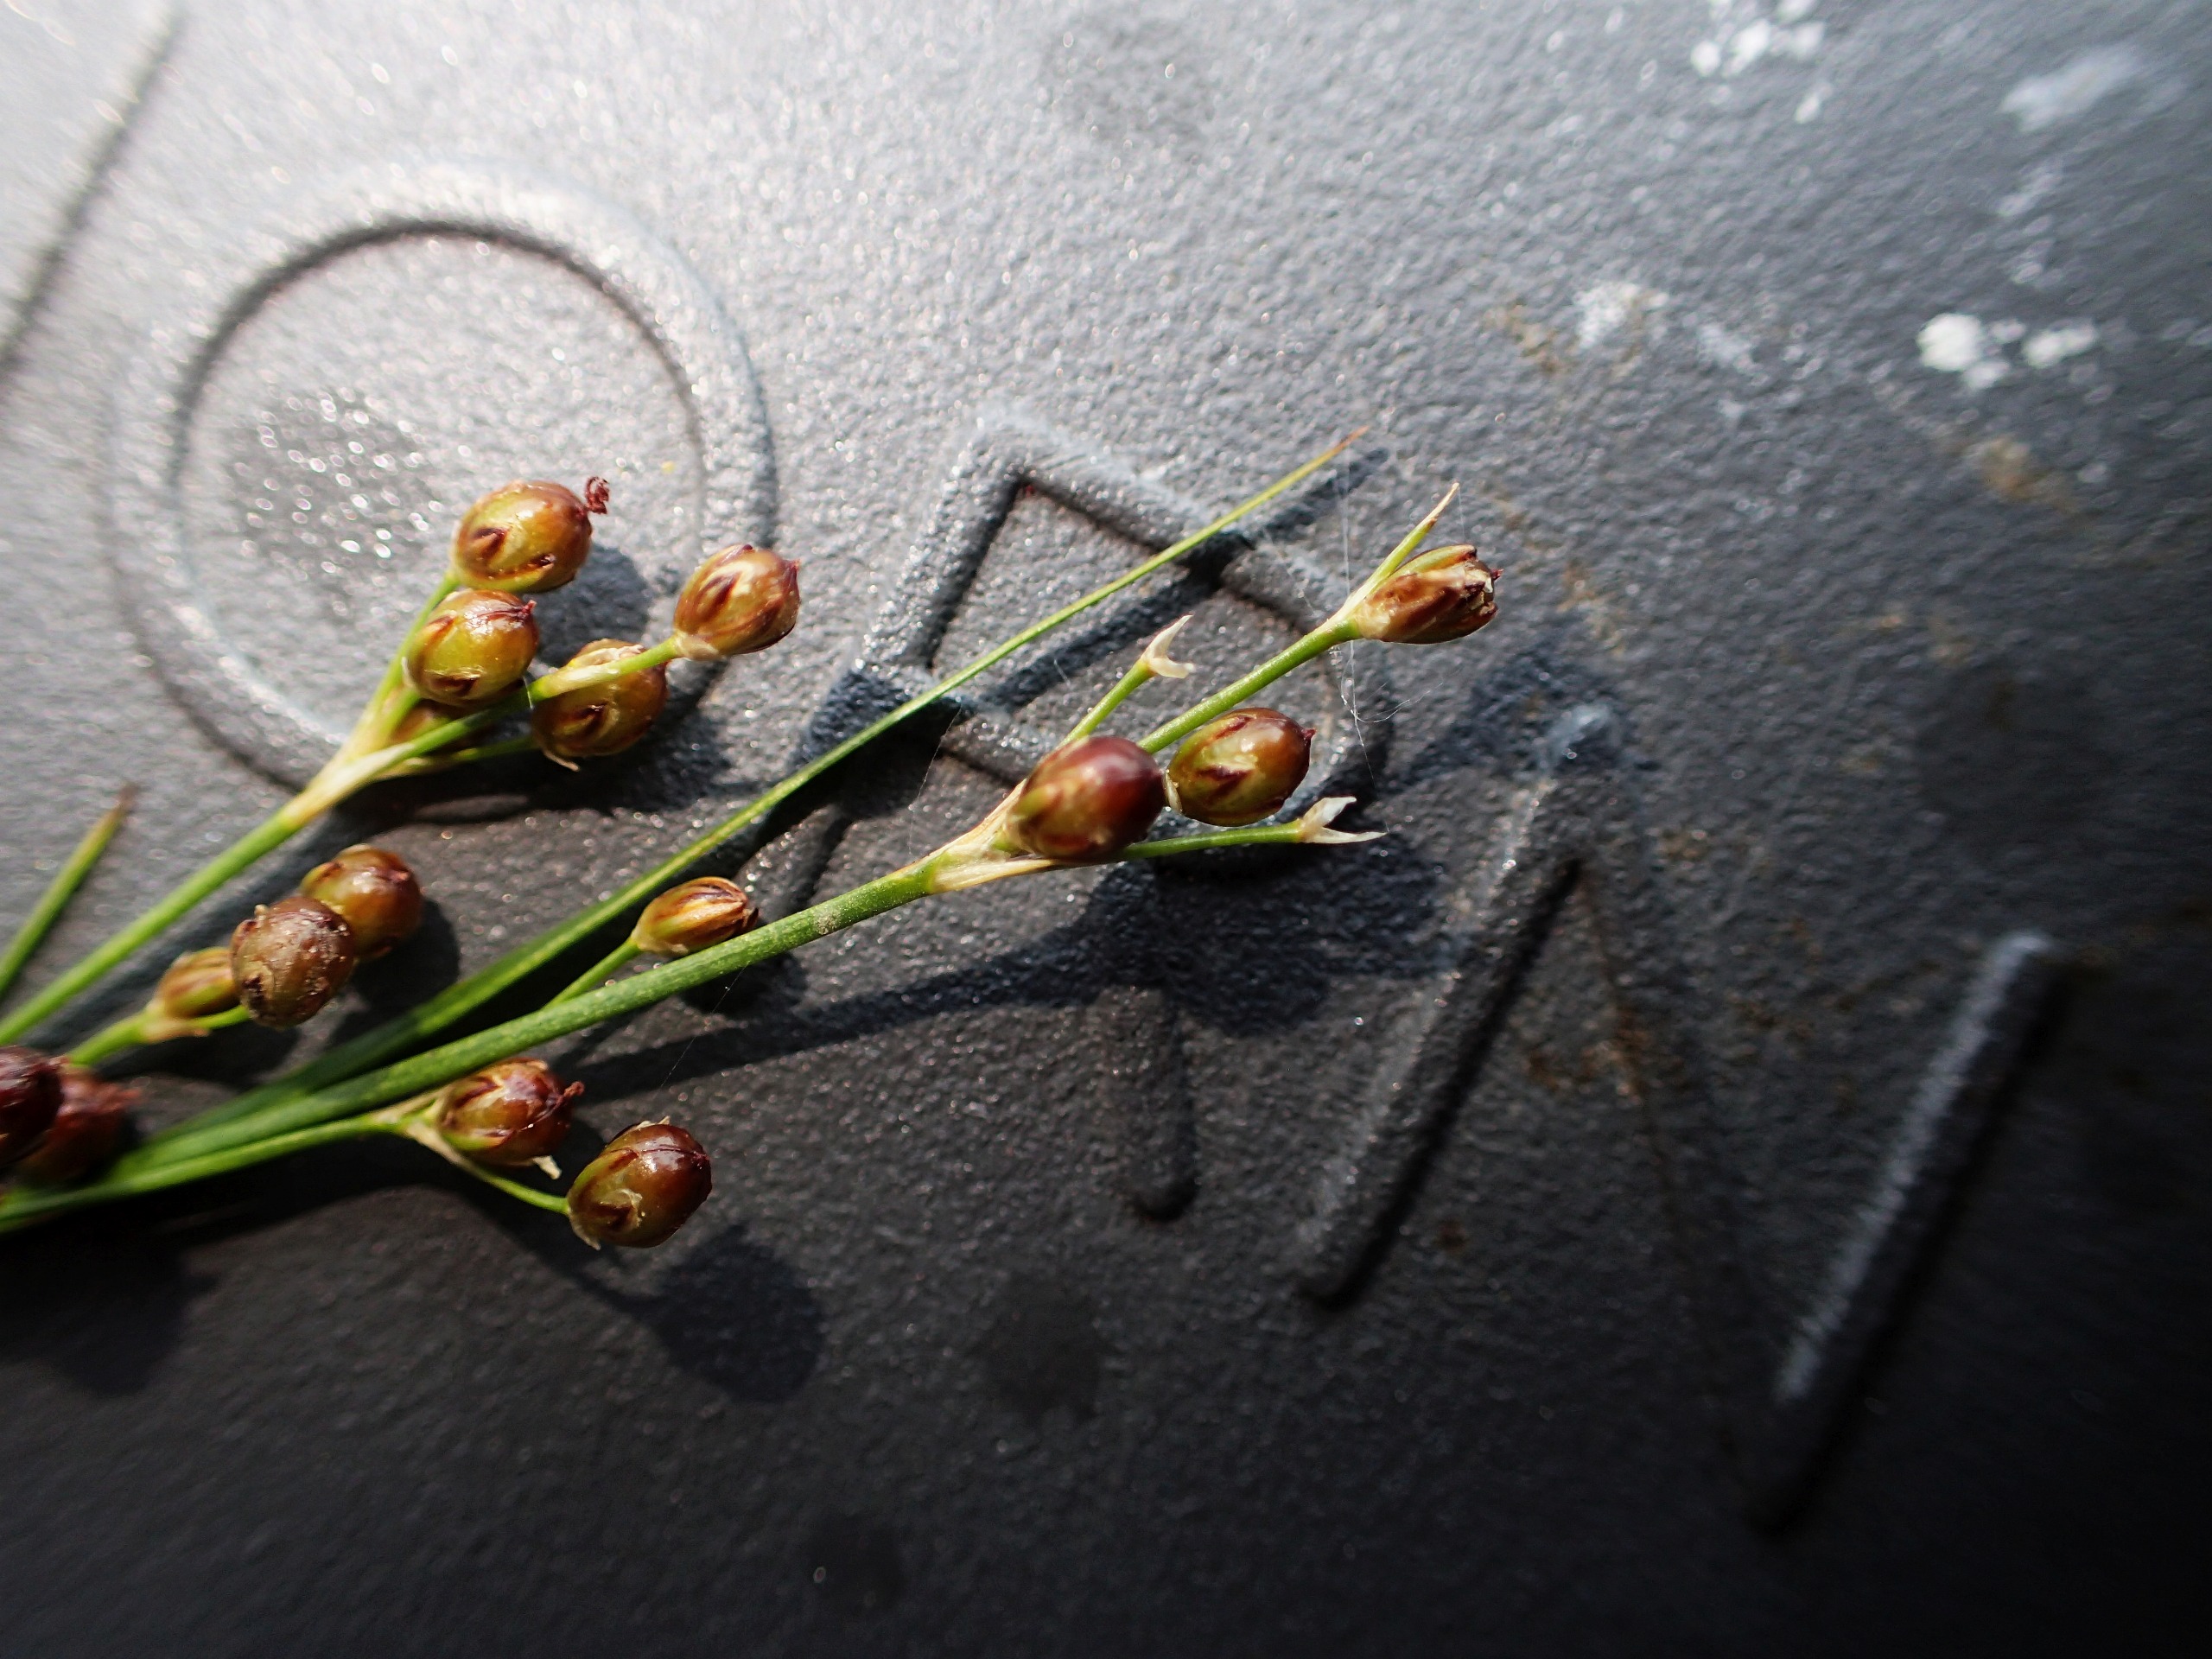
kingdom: Plantae
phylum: Tracheophyta
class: Liliopsida
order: Poales
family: Juncaceae
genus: Juncus
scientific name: Juncus compressus
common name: Fladstrået siv
